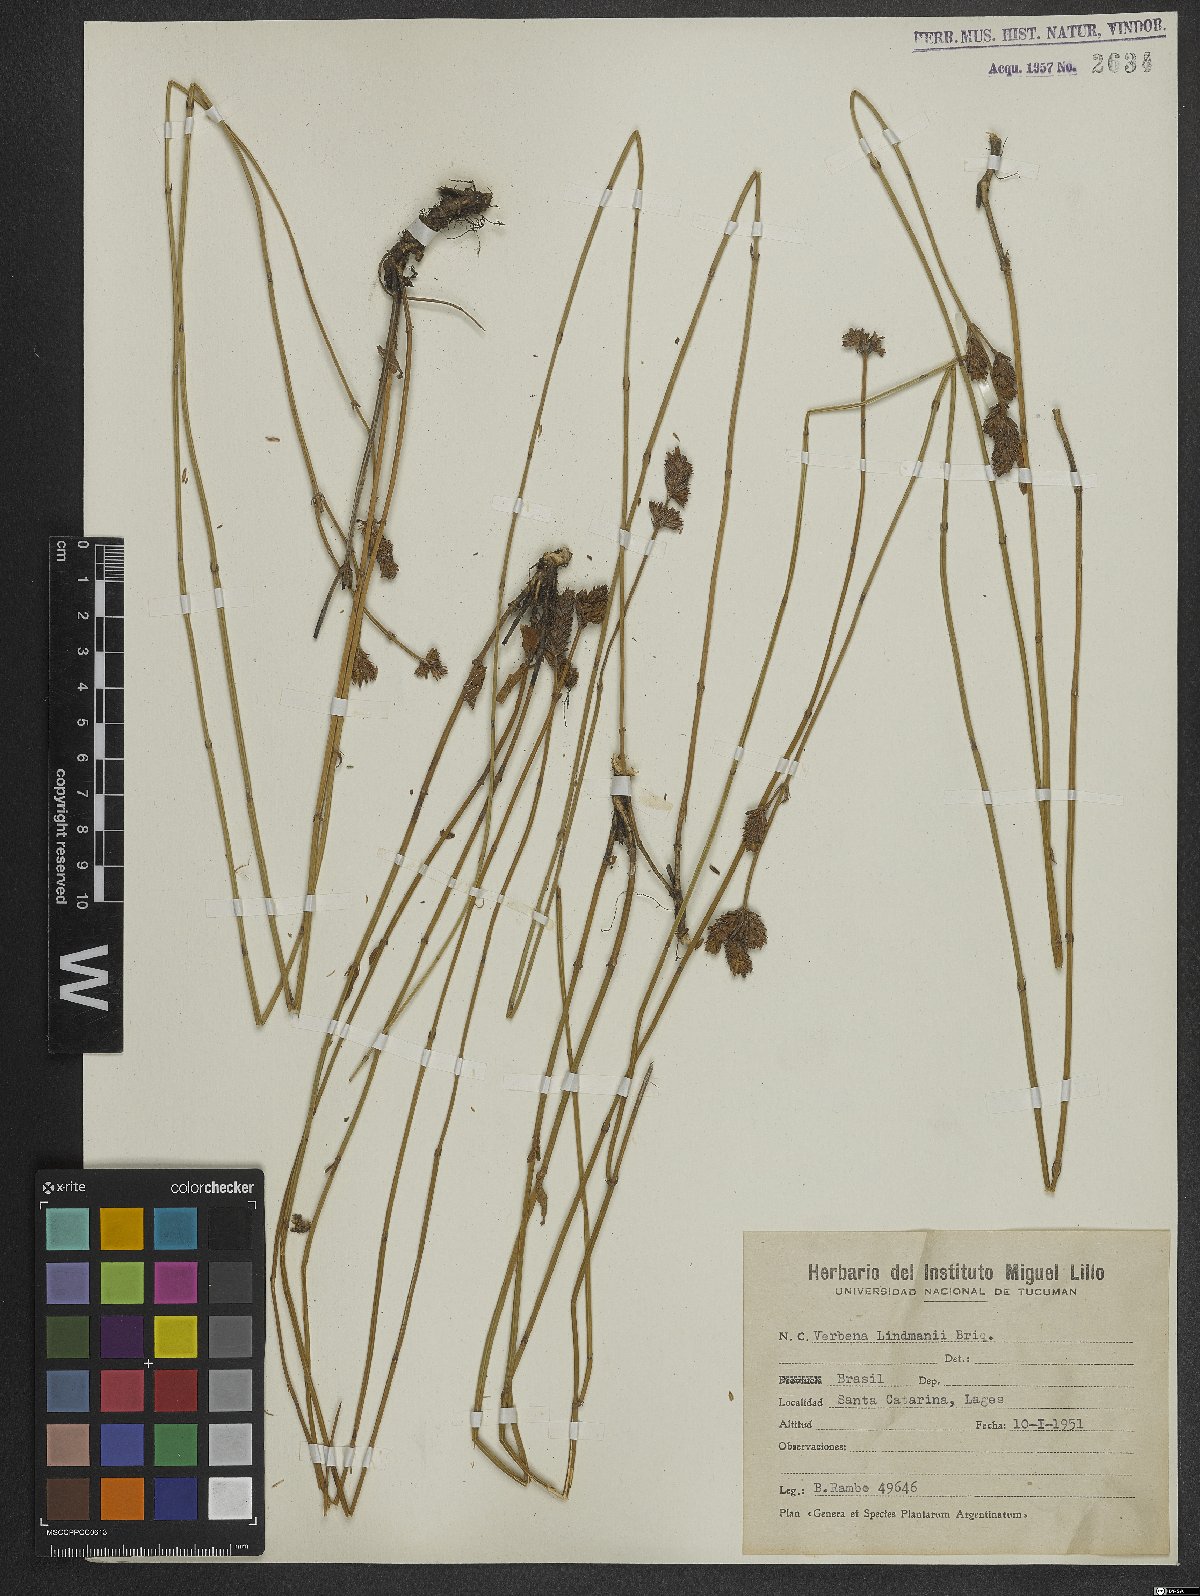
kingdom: Plantae
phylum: Tracheophyta
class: Magnoliopsida
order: Lamiales
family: Verbenaceae
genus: Verbena
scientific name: Verbena lindmanii
